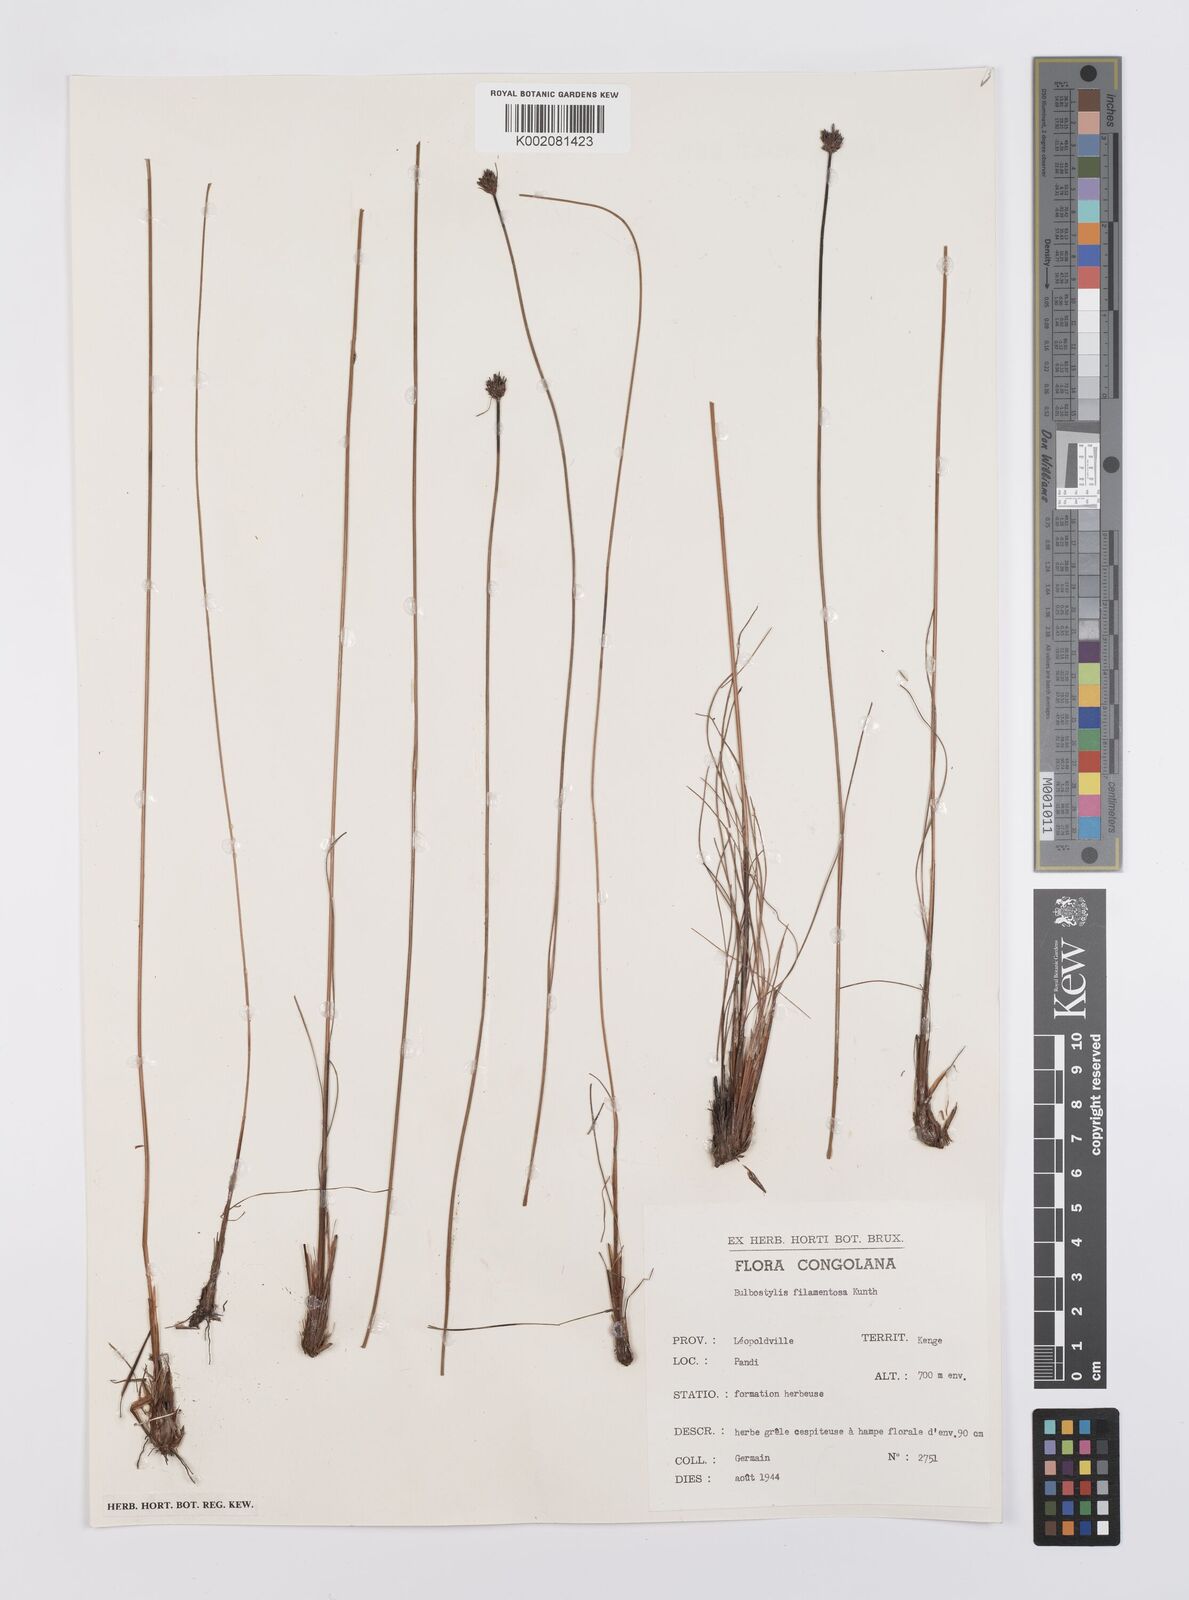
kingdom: Plantae
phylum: Tracheophyta
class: Liliopsida
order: Poales
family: Cyperaceae
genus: Bulbostylis
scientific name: Bulbostylis filamentosa
